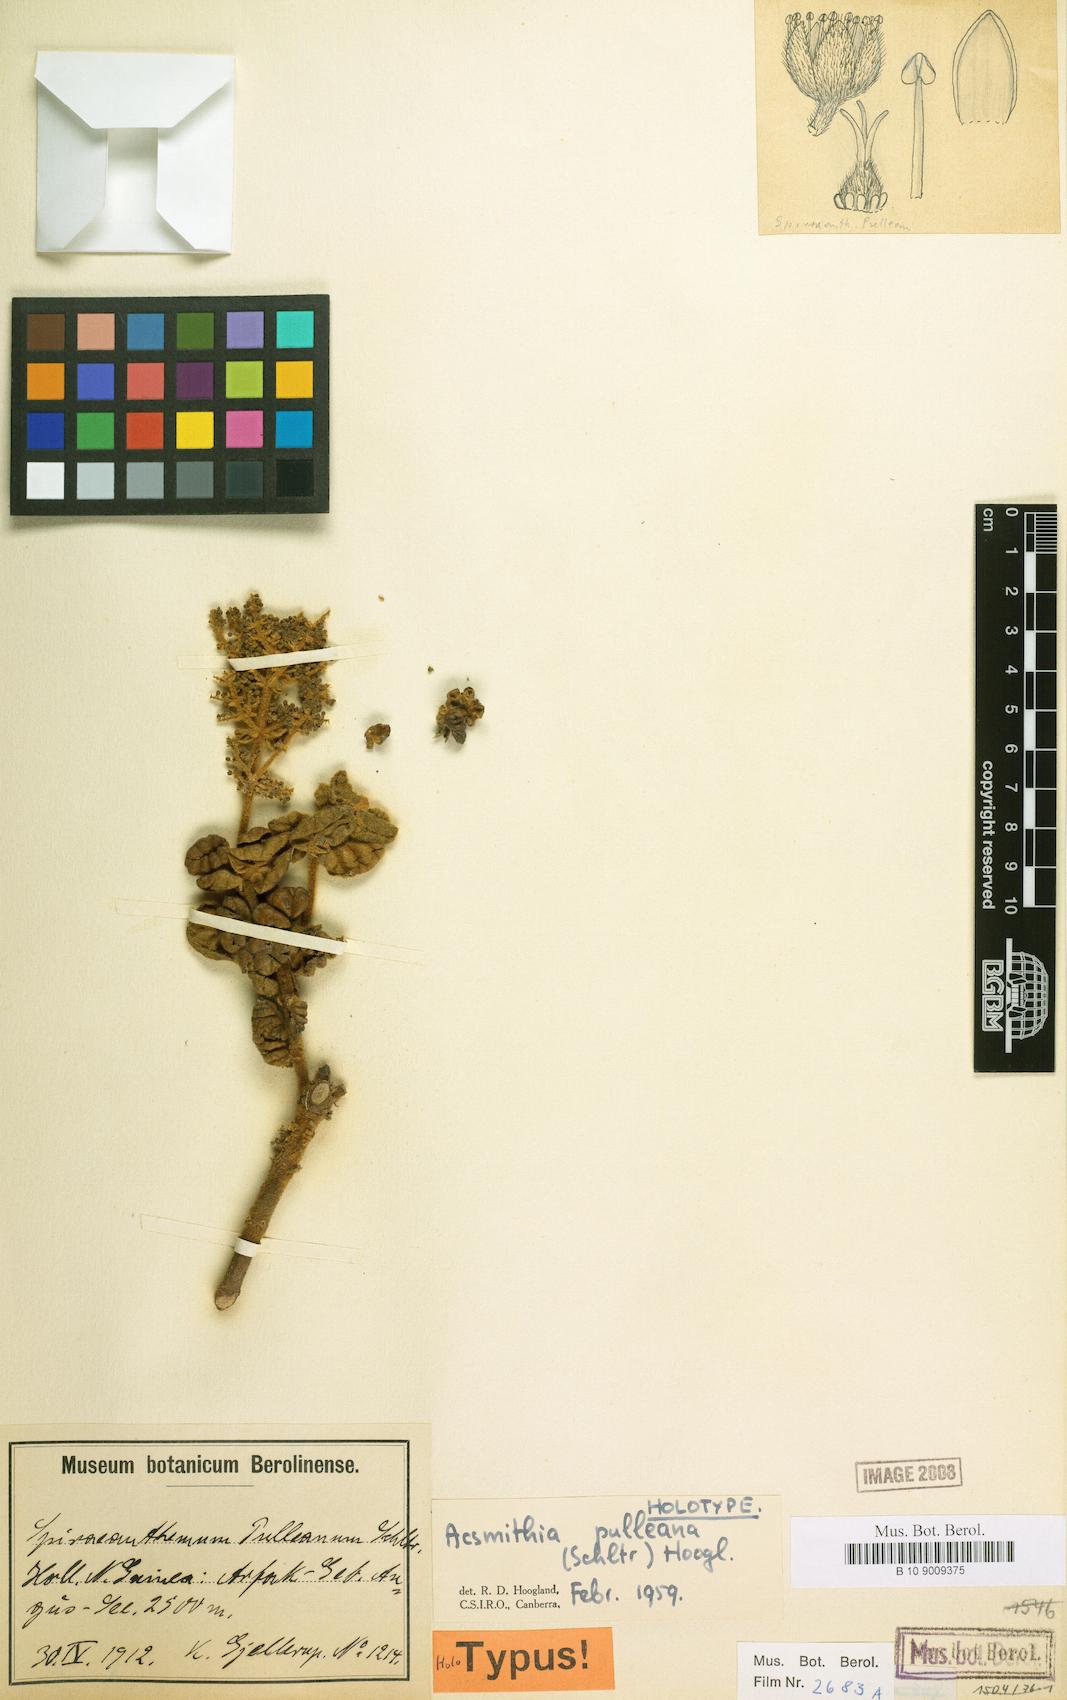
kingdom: Plantae
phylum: Tracheophyta
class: Magnoliopsida
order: Oxalidales
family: Cunoniaceae
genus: Spiraeanthemum
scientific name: Spiraeanthemum pulleanum
